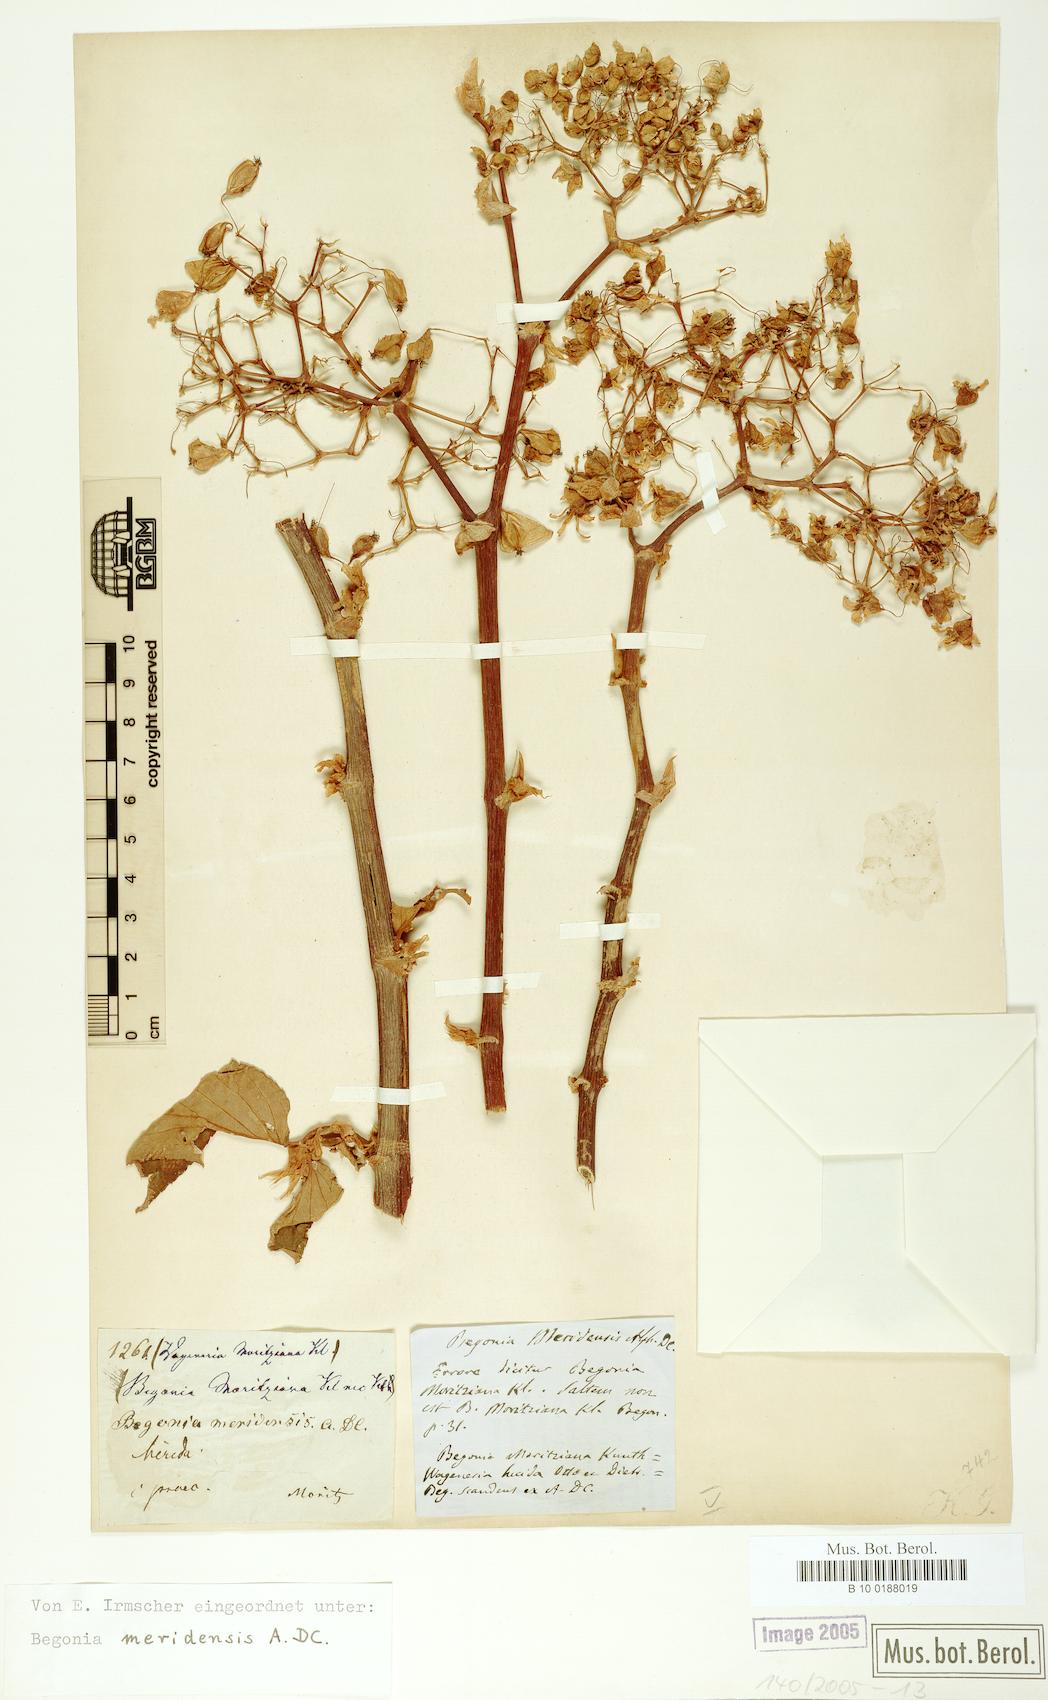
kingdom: Plantae
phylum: Tracheophyta
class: Magnoliopsida
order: Cucurbitales
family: Begoniaceae
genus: Begonia
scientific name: Begonia meridensis
